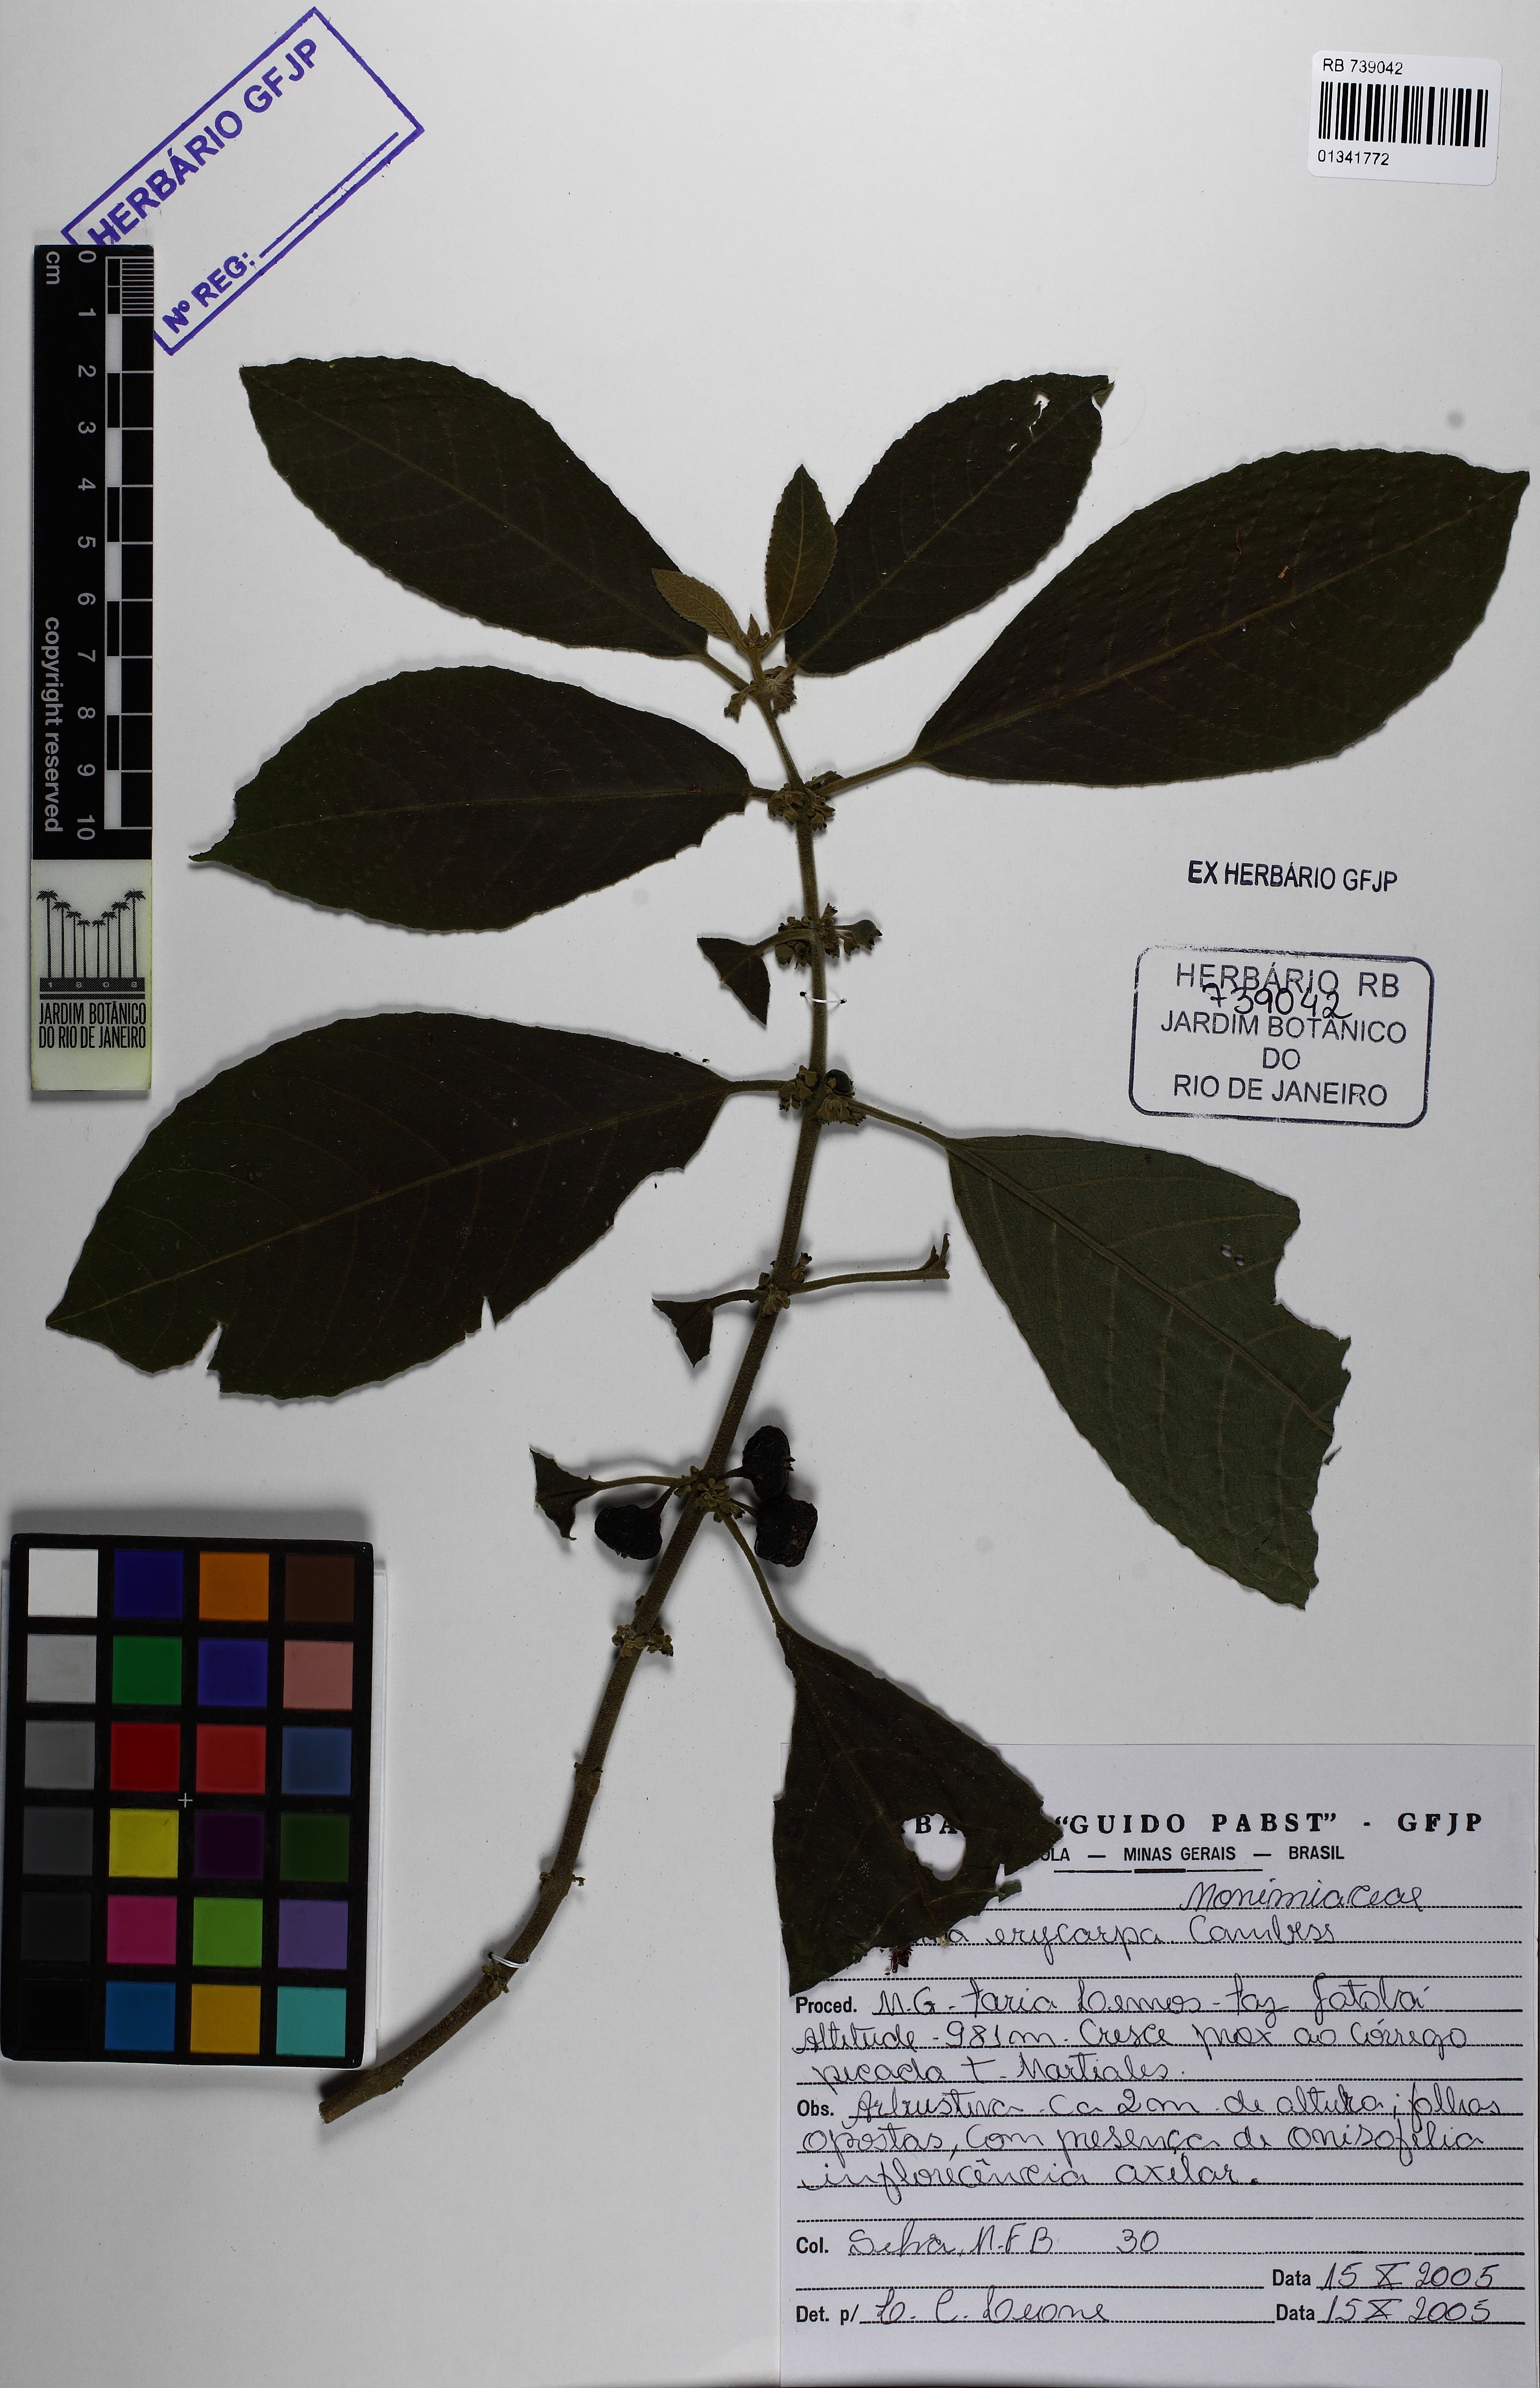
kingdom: Plantae
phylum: Tracheophyta
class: Magnoliopsida
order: Laurales
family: Siparunaceae
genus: Siparuna
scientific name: Siparuna brasiliensis
